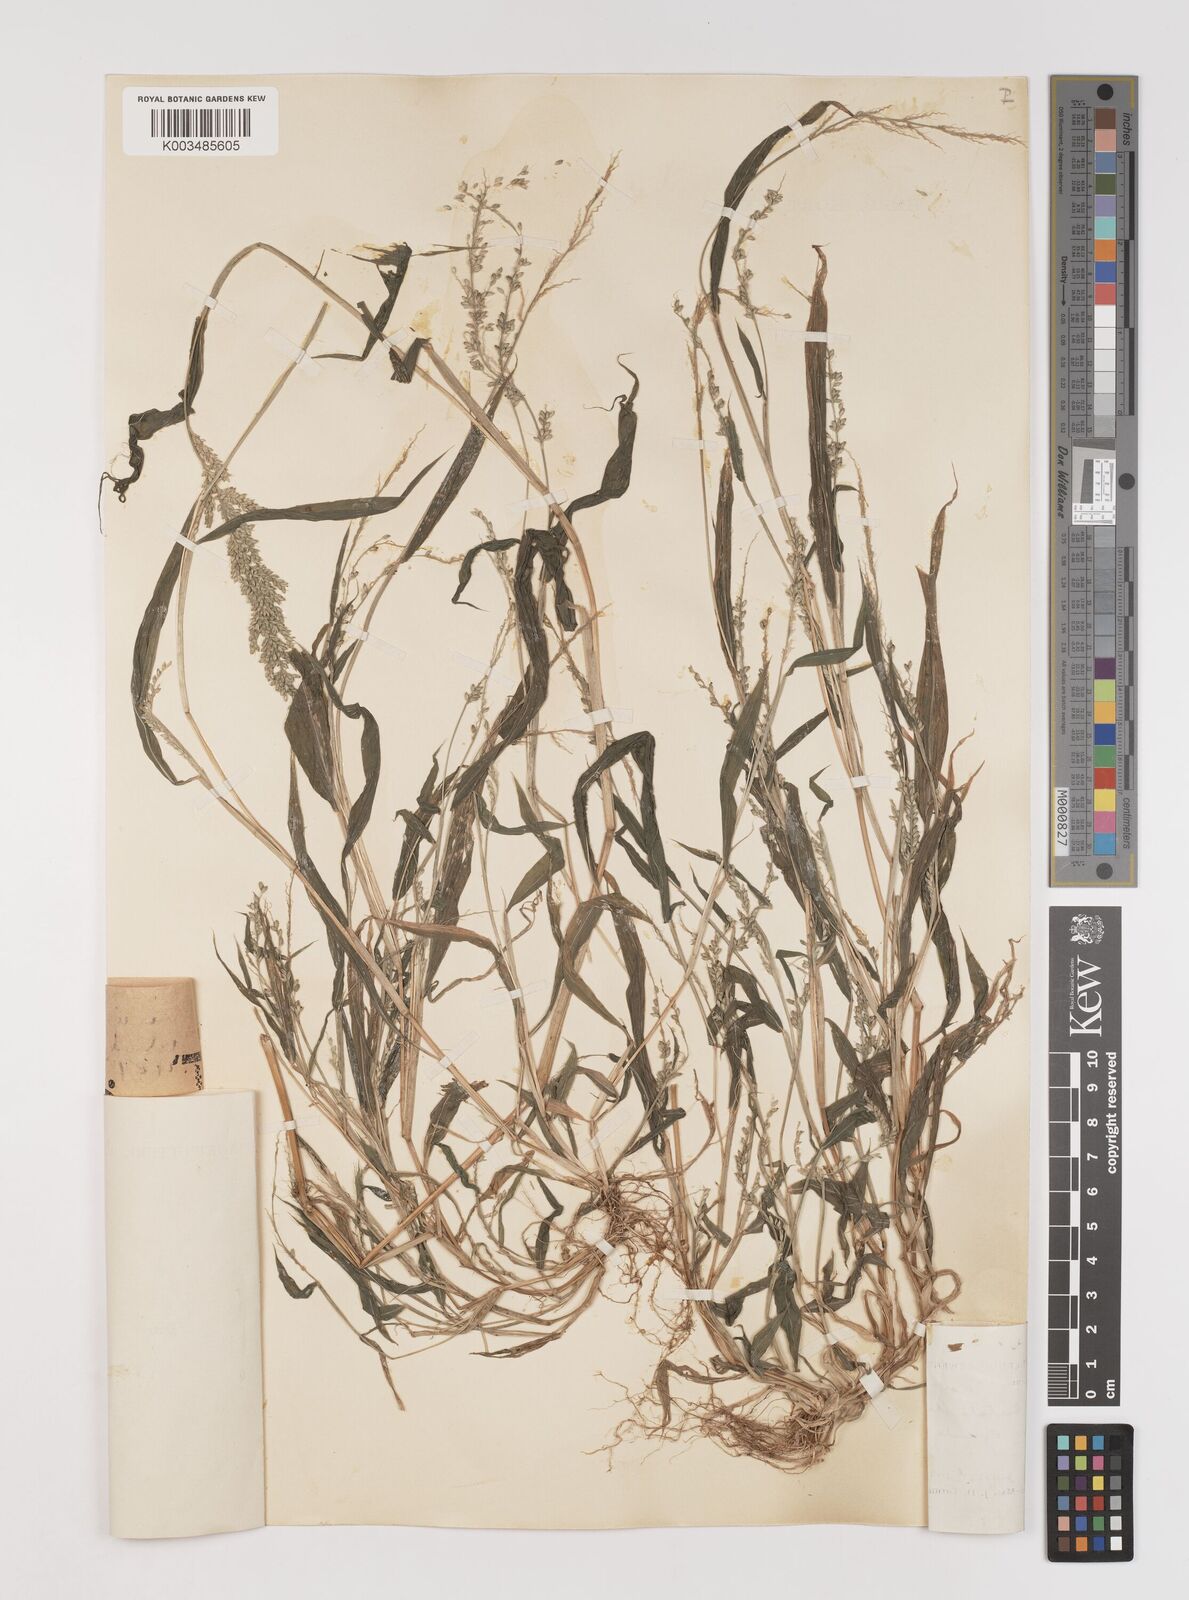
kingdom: Plantae
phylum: Tracheophyta
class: Liliopsida
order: Poales
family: Poaceae
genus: Setaria
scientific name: Setaria barbata
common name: East indian bristlegrass
